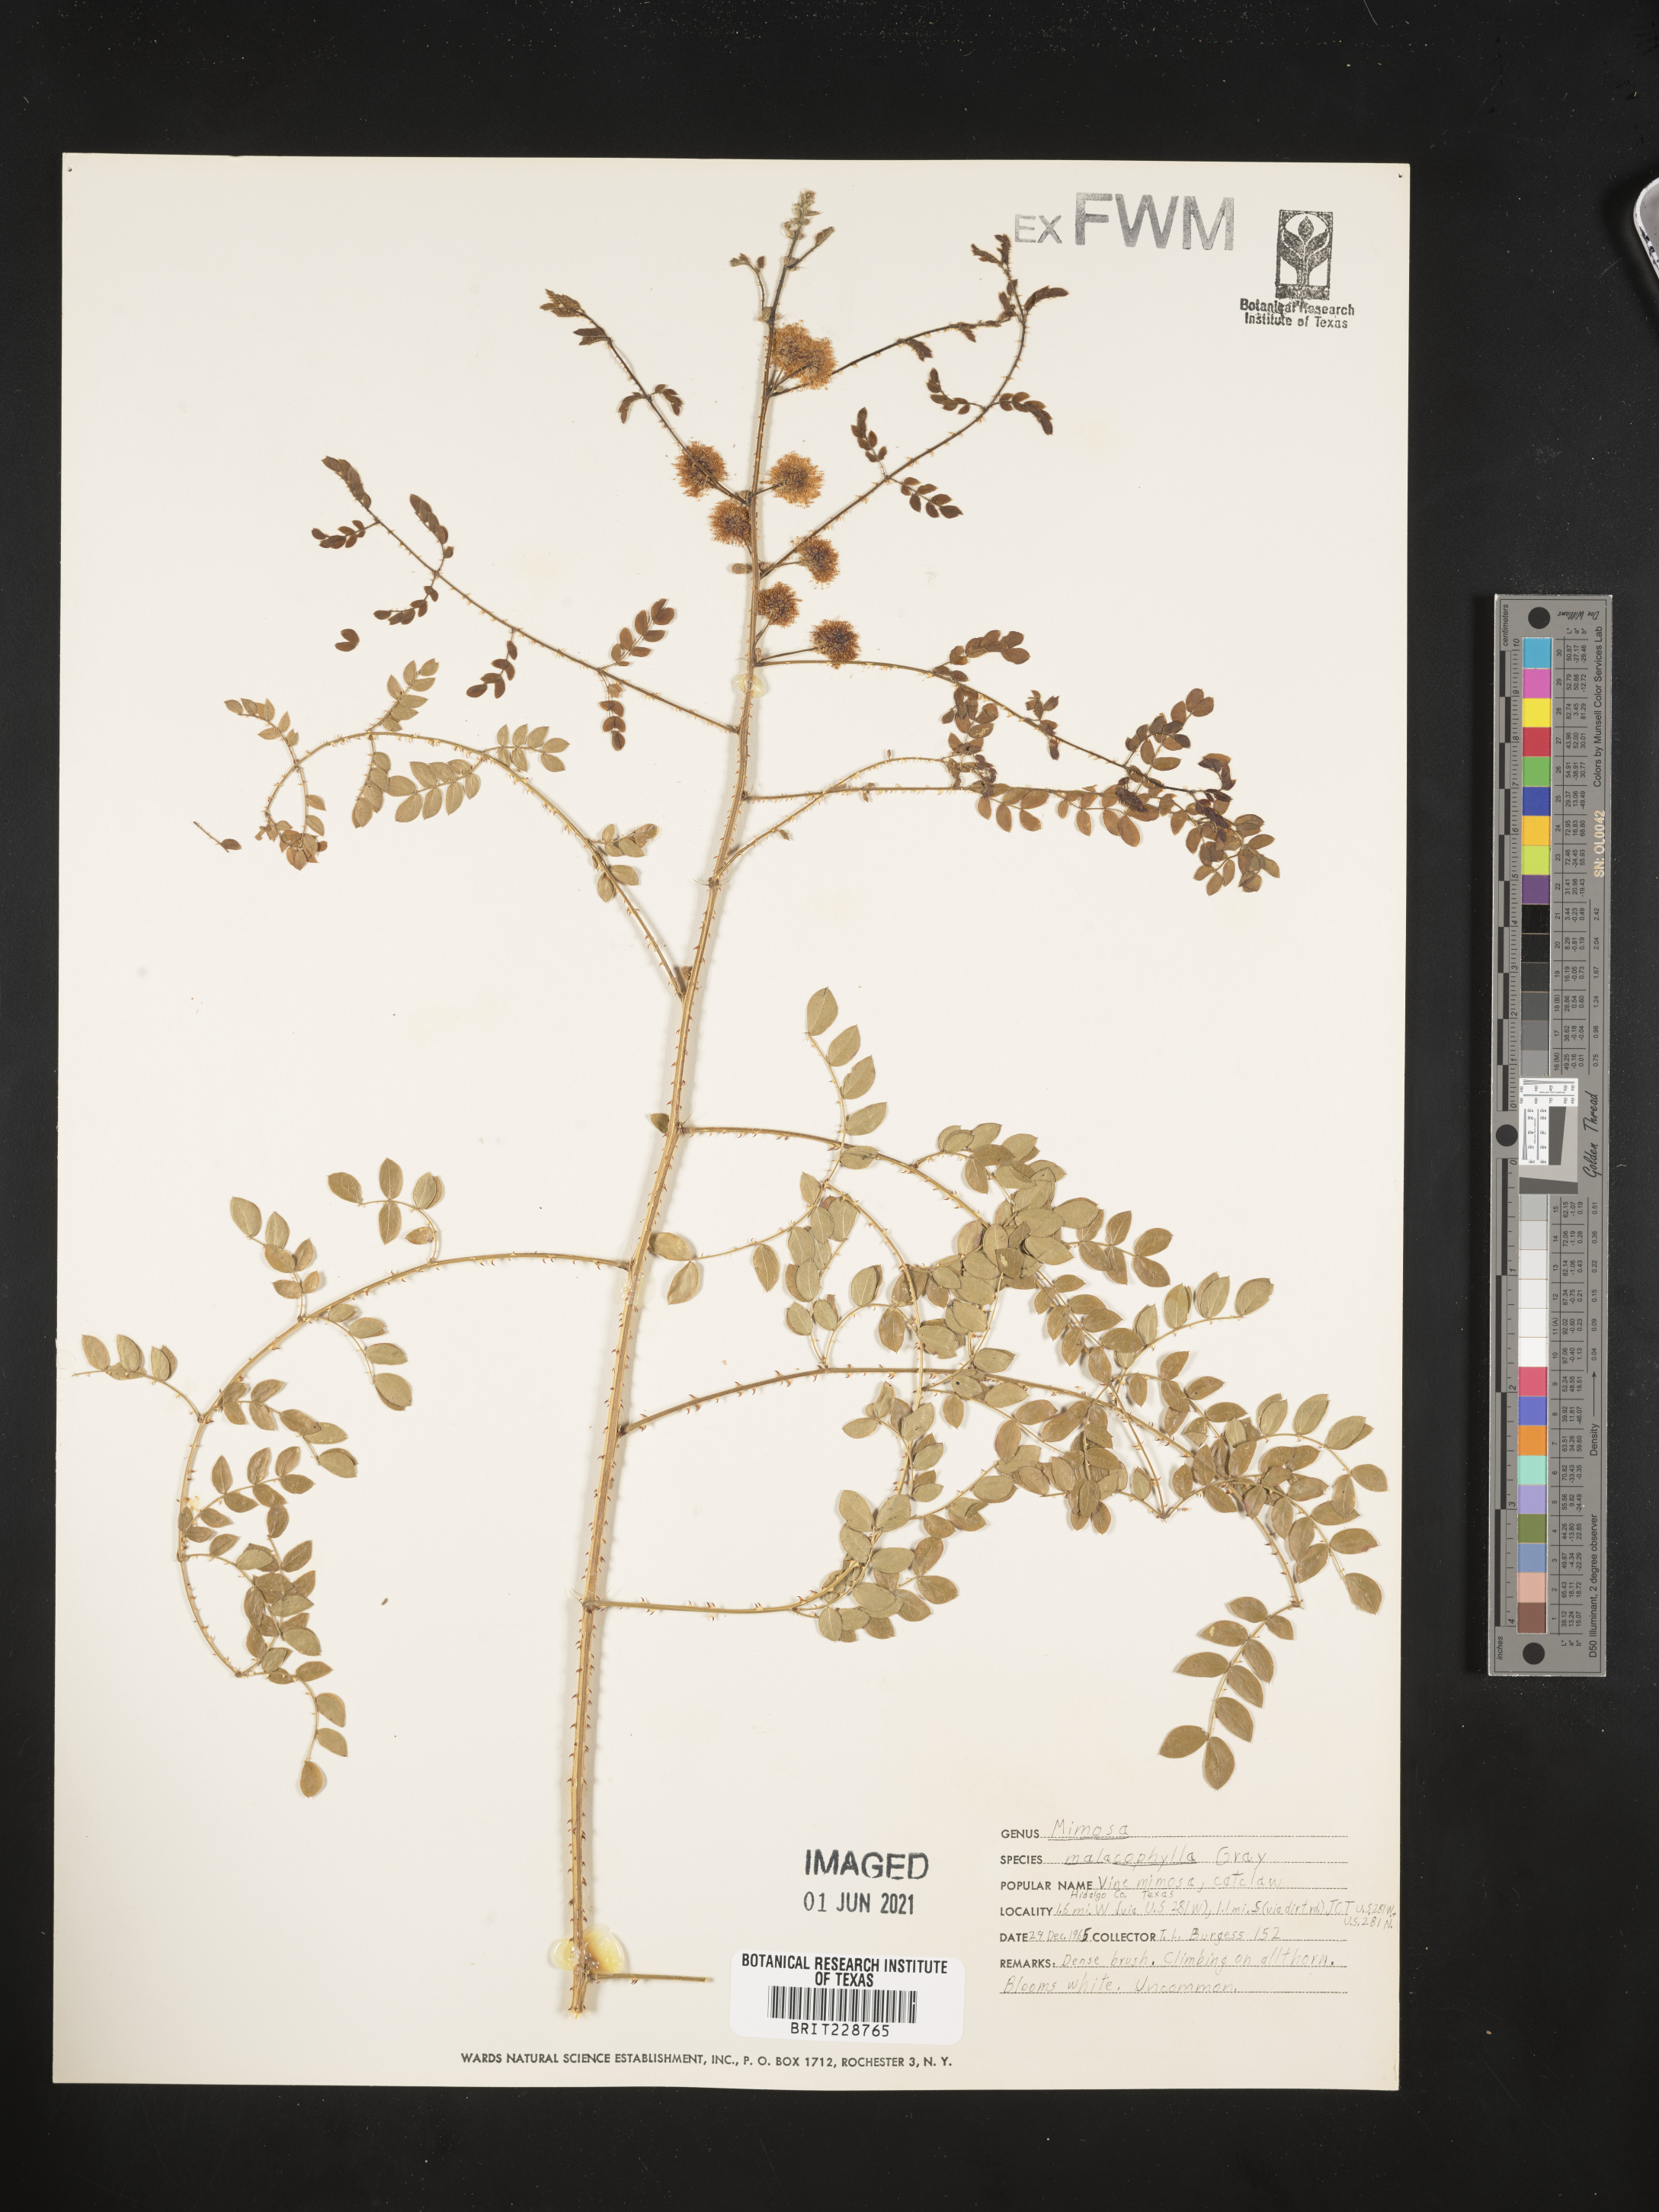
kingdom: Plantae
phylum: Tracheophyta
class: Magnoliopsida
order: Fabales
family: Fabaceae
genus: Mimosa
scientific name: Mimosa malacophylla
